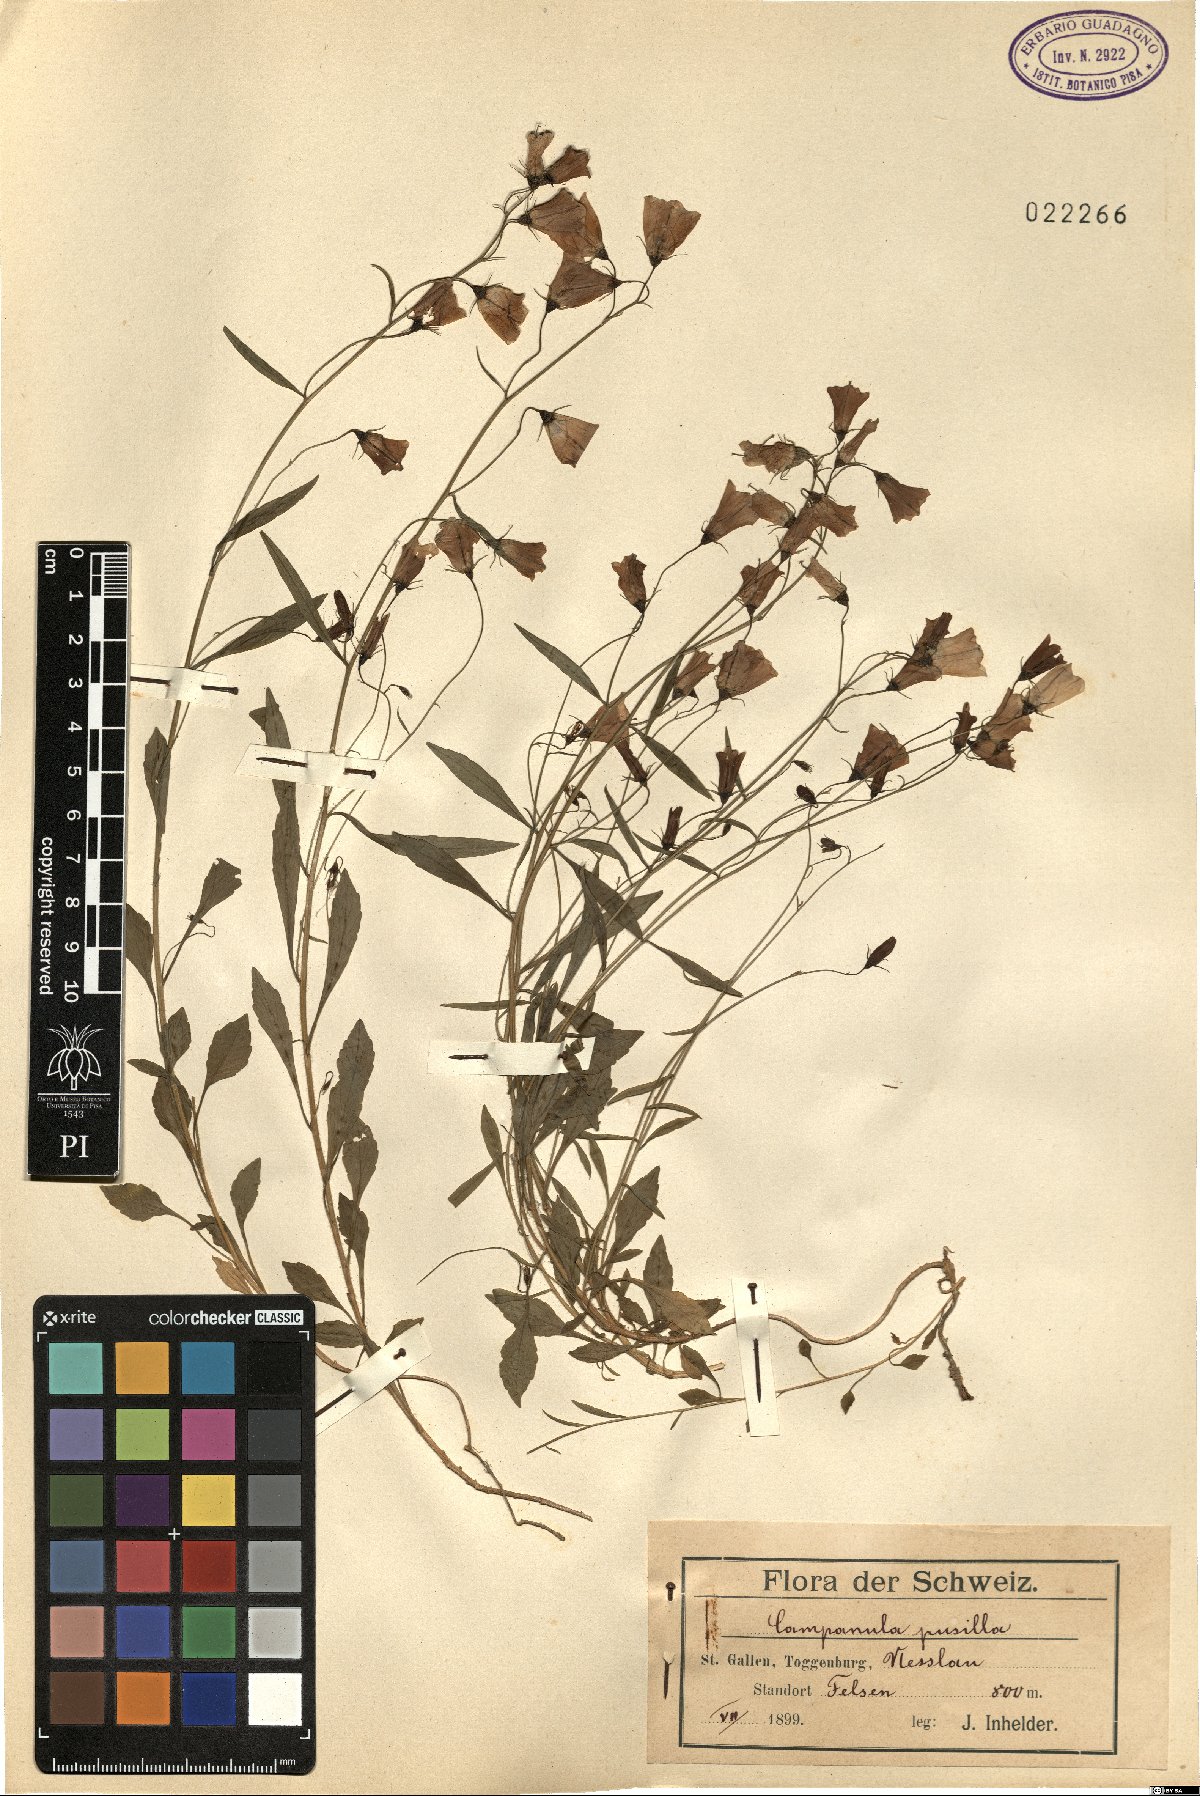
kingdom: Plantae
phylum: Tracheophyta
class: Magnoliopsida
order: Asterales
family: Campanulaceae
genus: Campanula
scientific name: Campanula cochleariifolia
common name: Fairies'-thimbles
